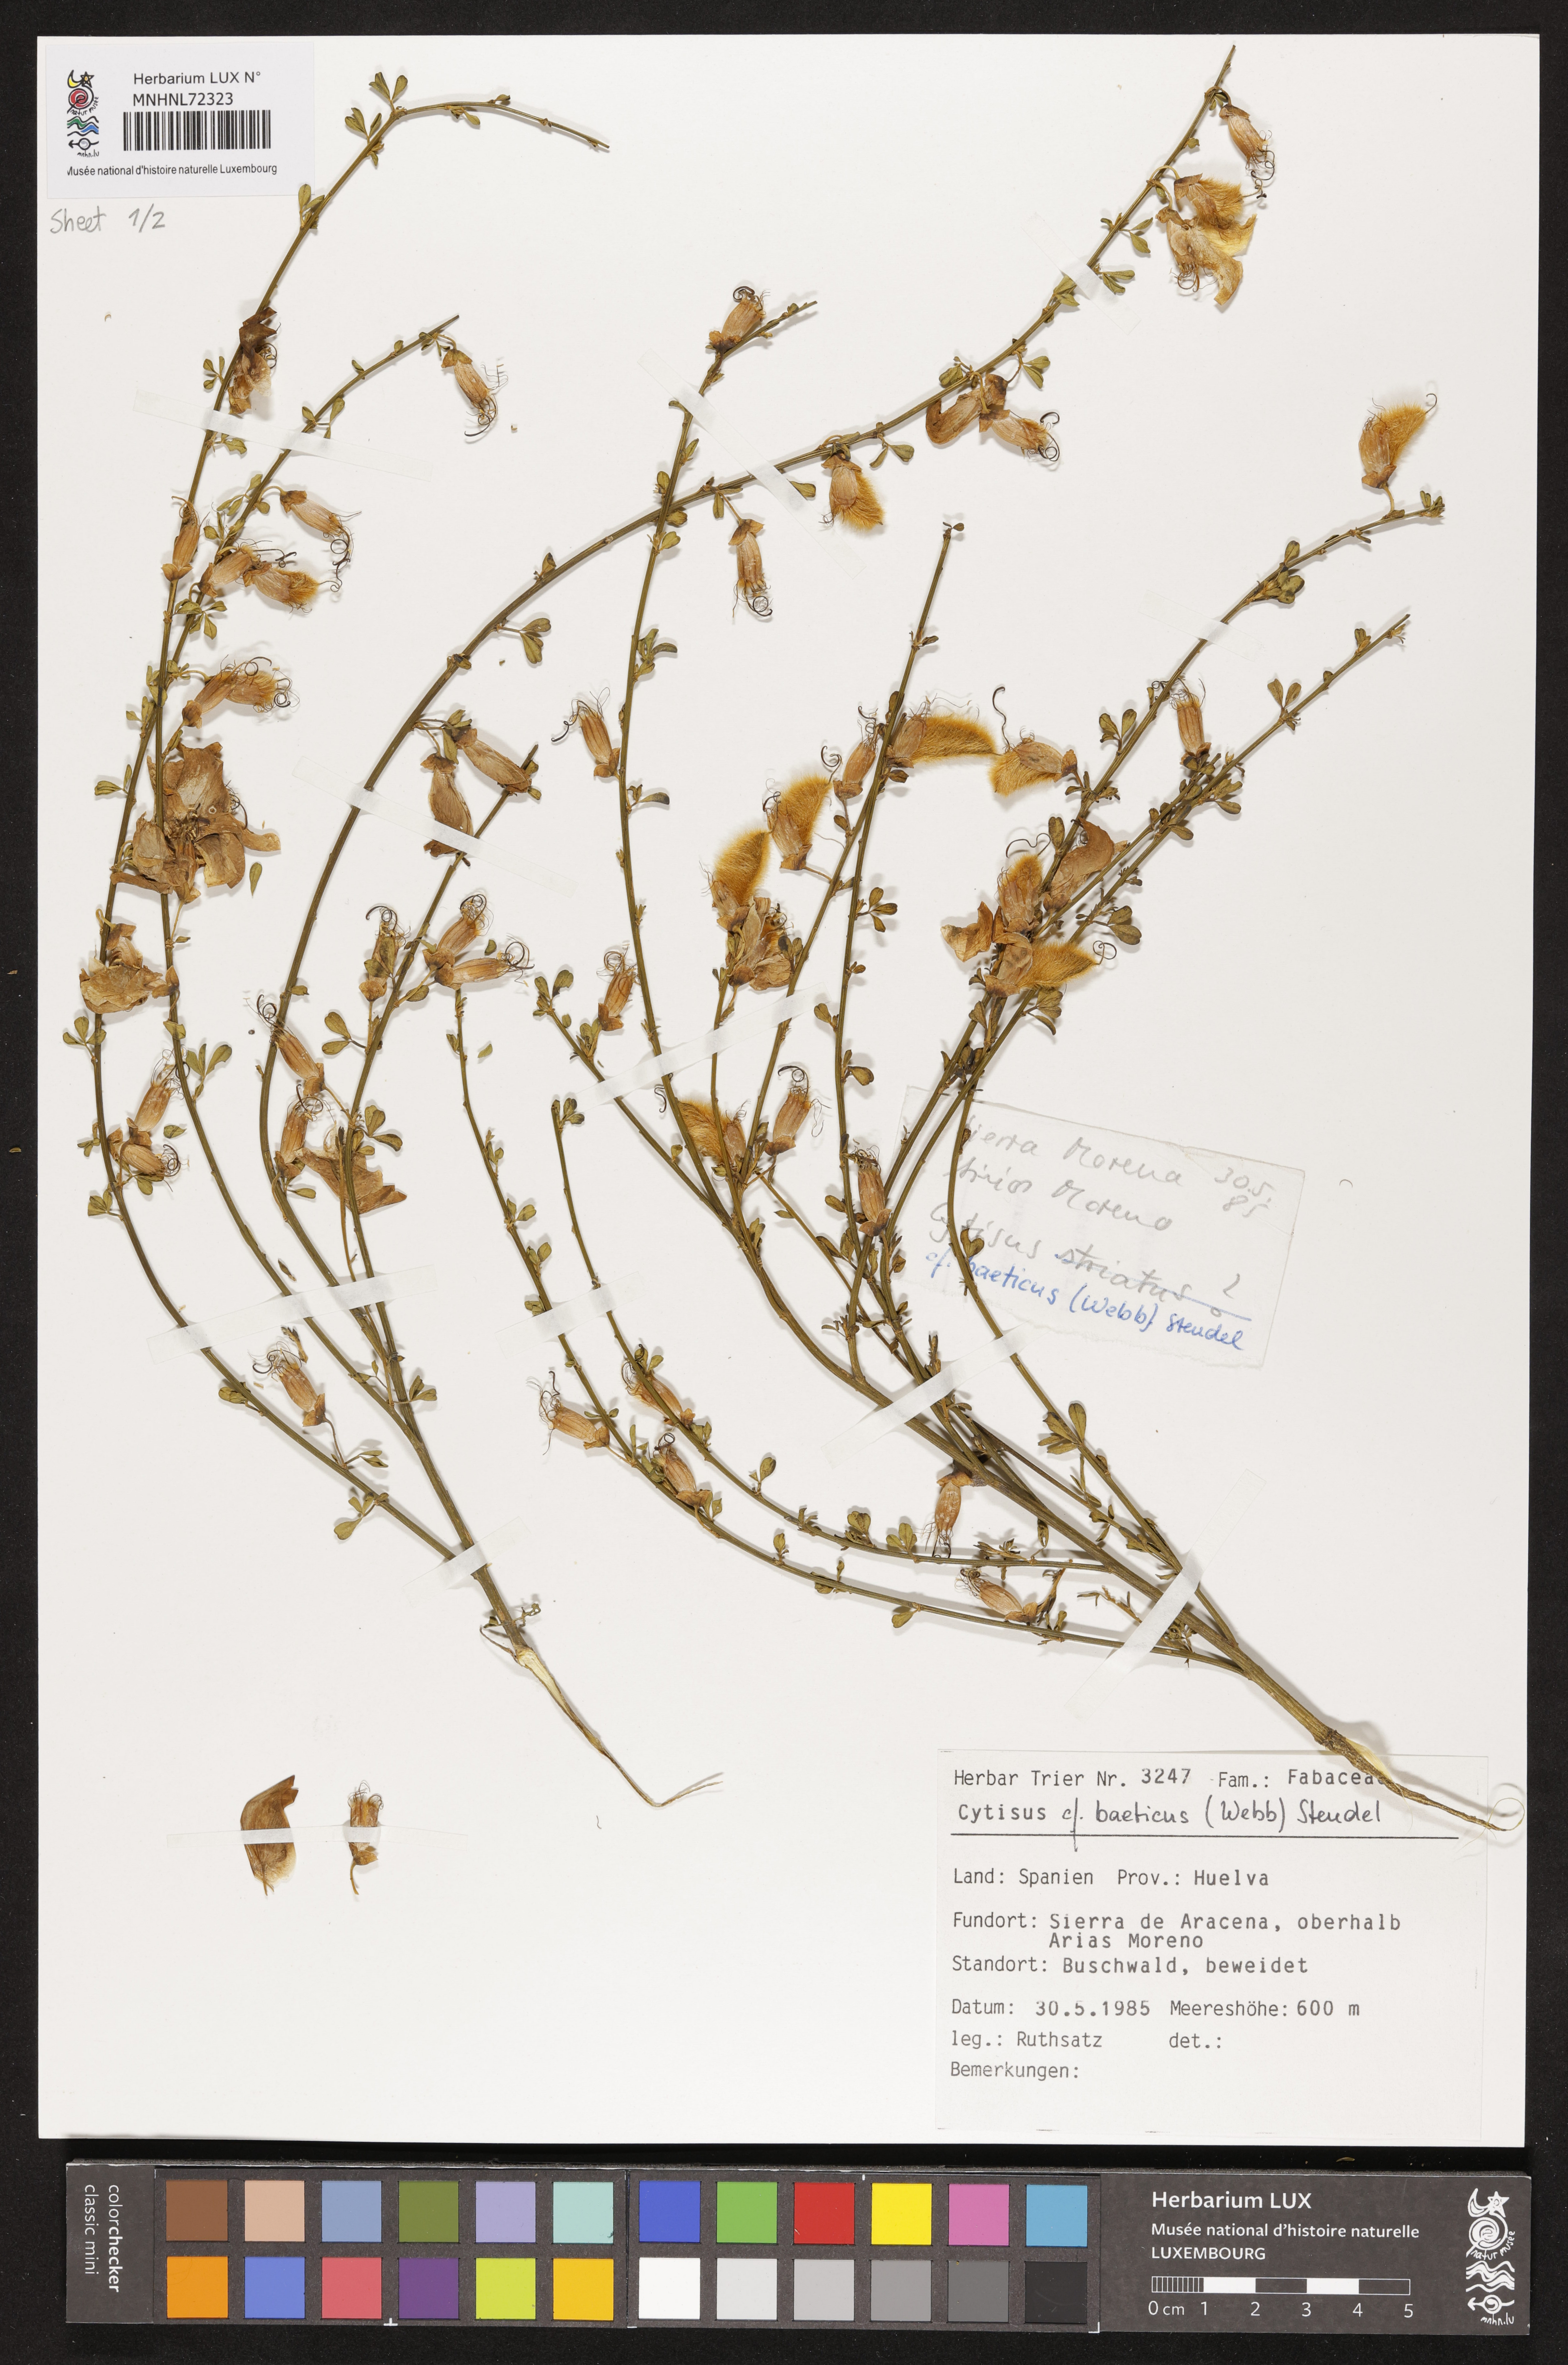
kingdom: Plantae
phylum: Tracheophyta
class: Magnoliopsida
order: Fabales
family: Fabaceae
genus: Cytisus
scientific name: Cytisus arboreus
